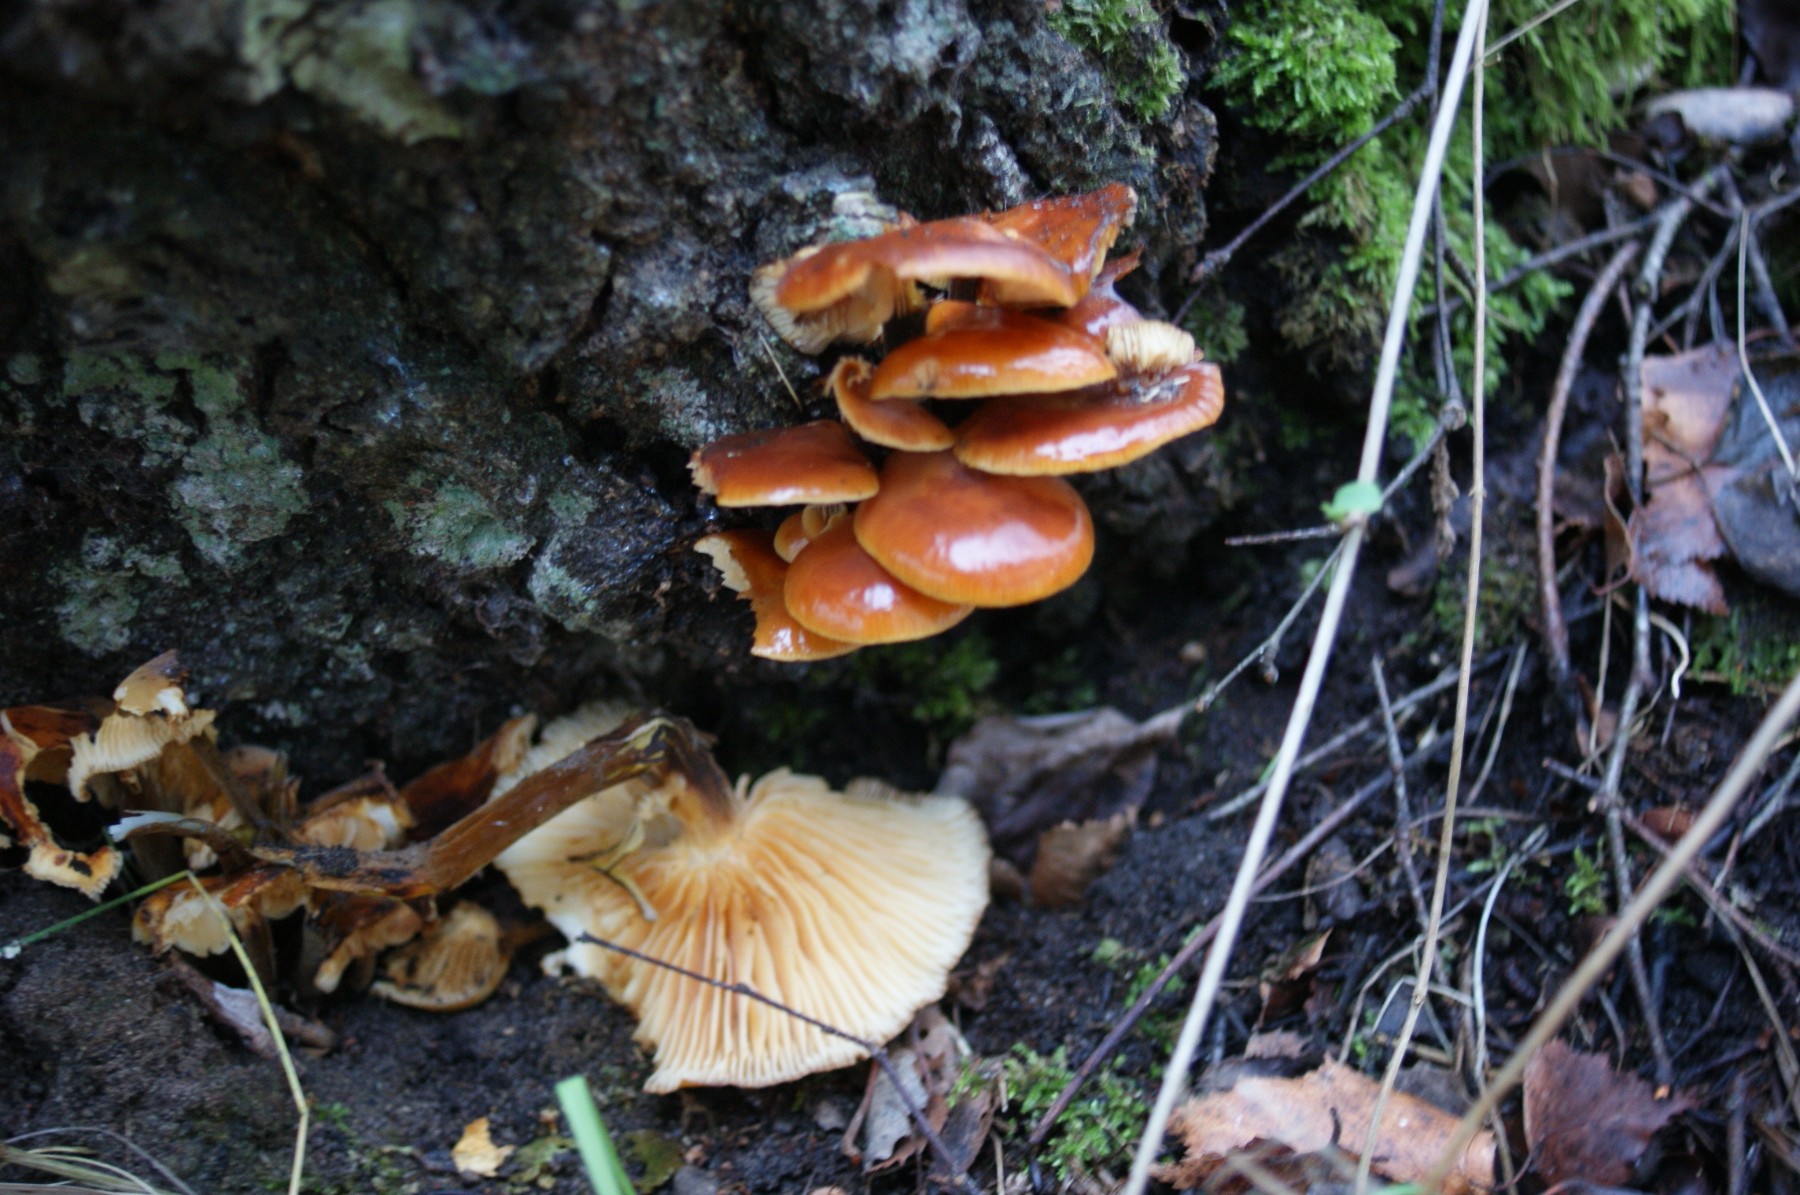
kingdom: Fungi
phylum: Basidiomycota
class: Agaricomycetes
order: Agaricales
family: Physalacriaceae
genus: Flammulina
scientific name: Flammulina velutipes
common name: gul fløjlsfod
